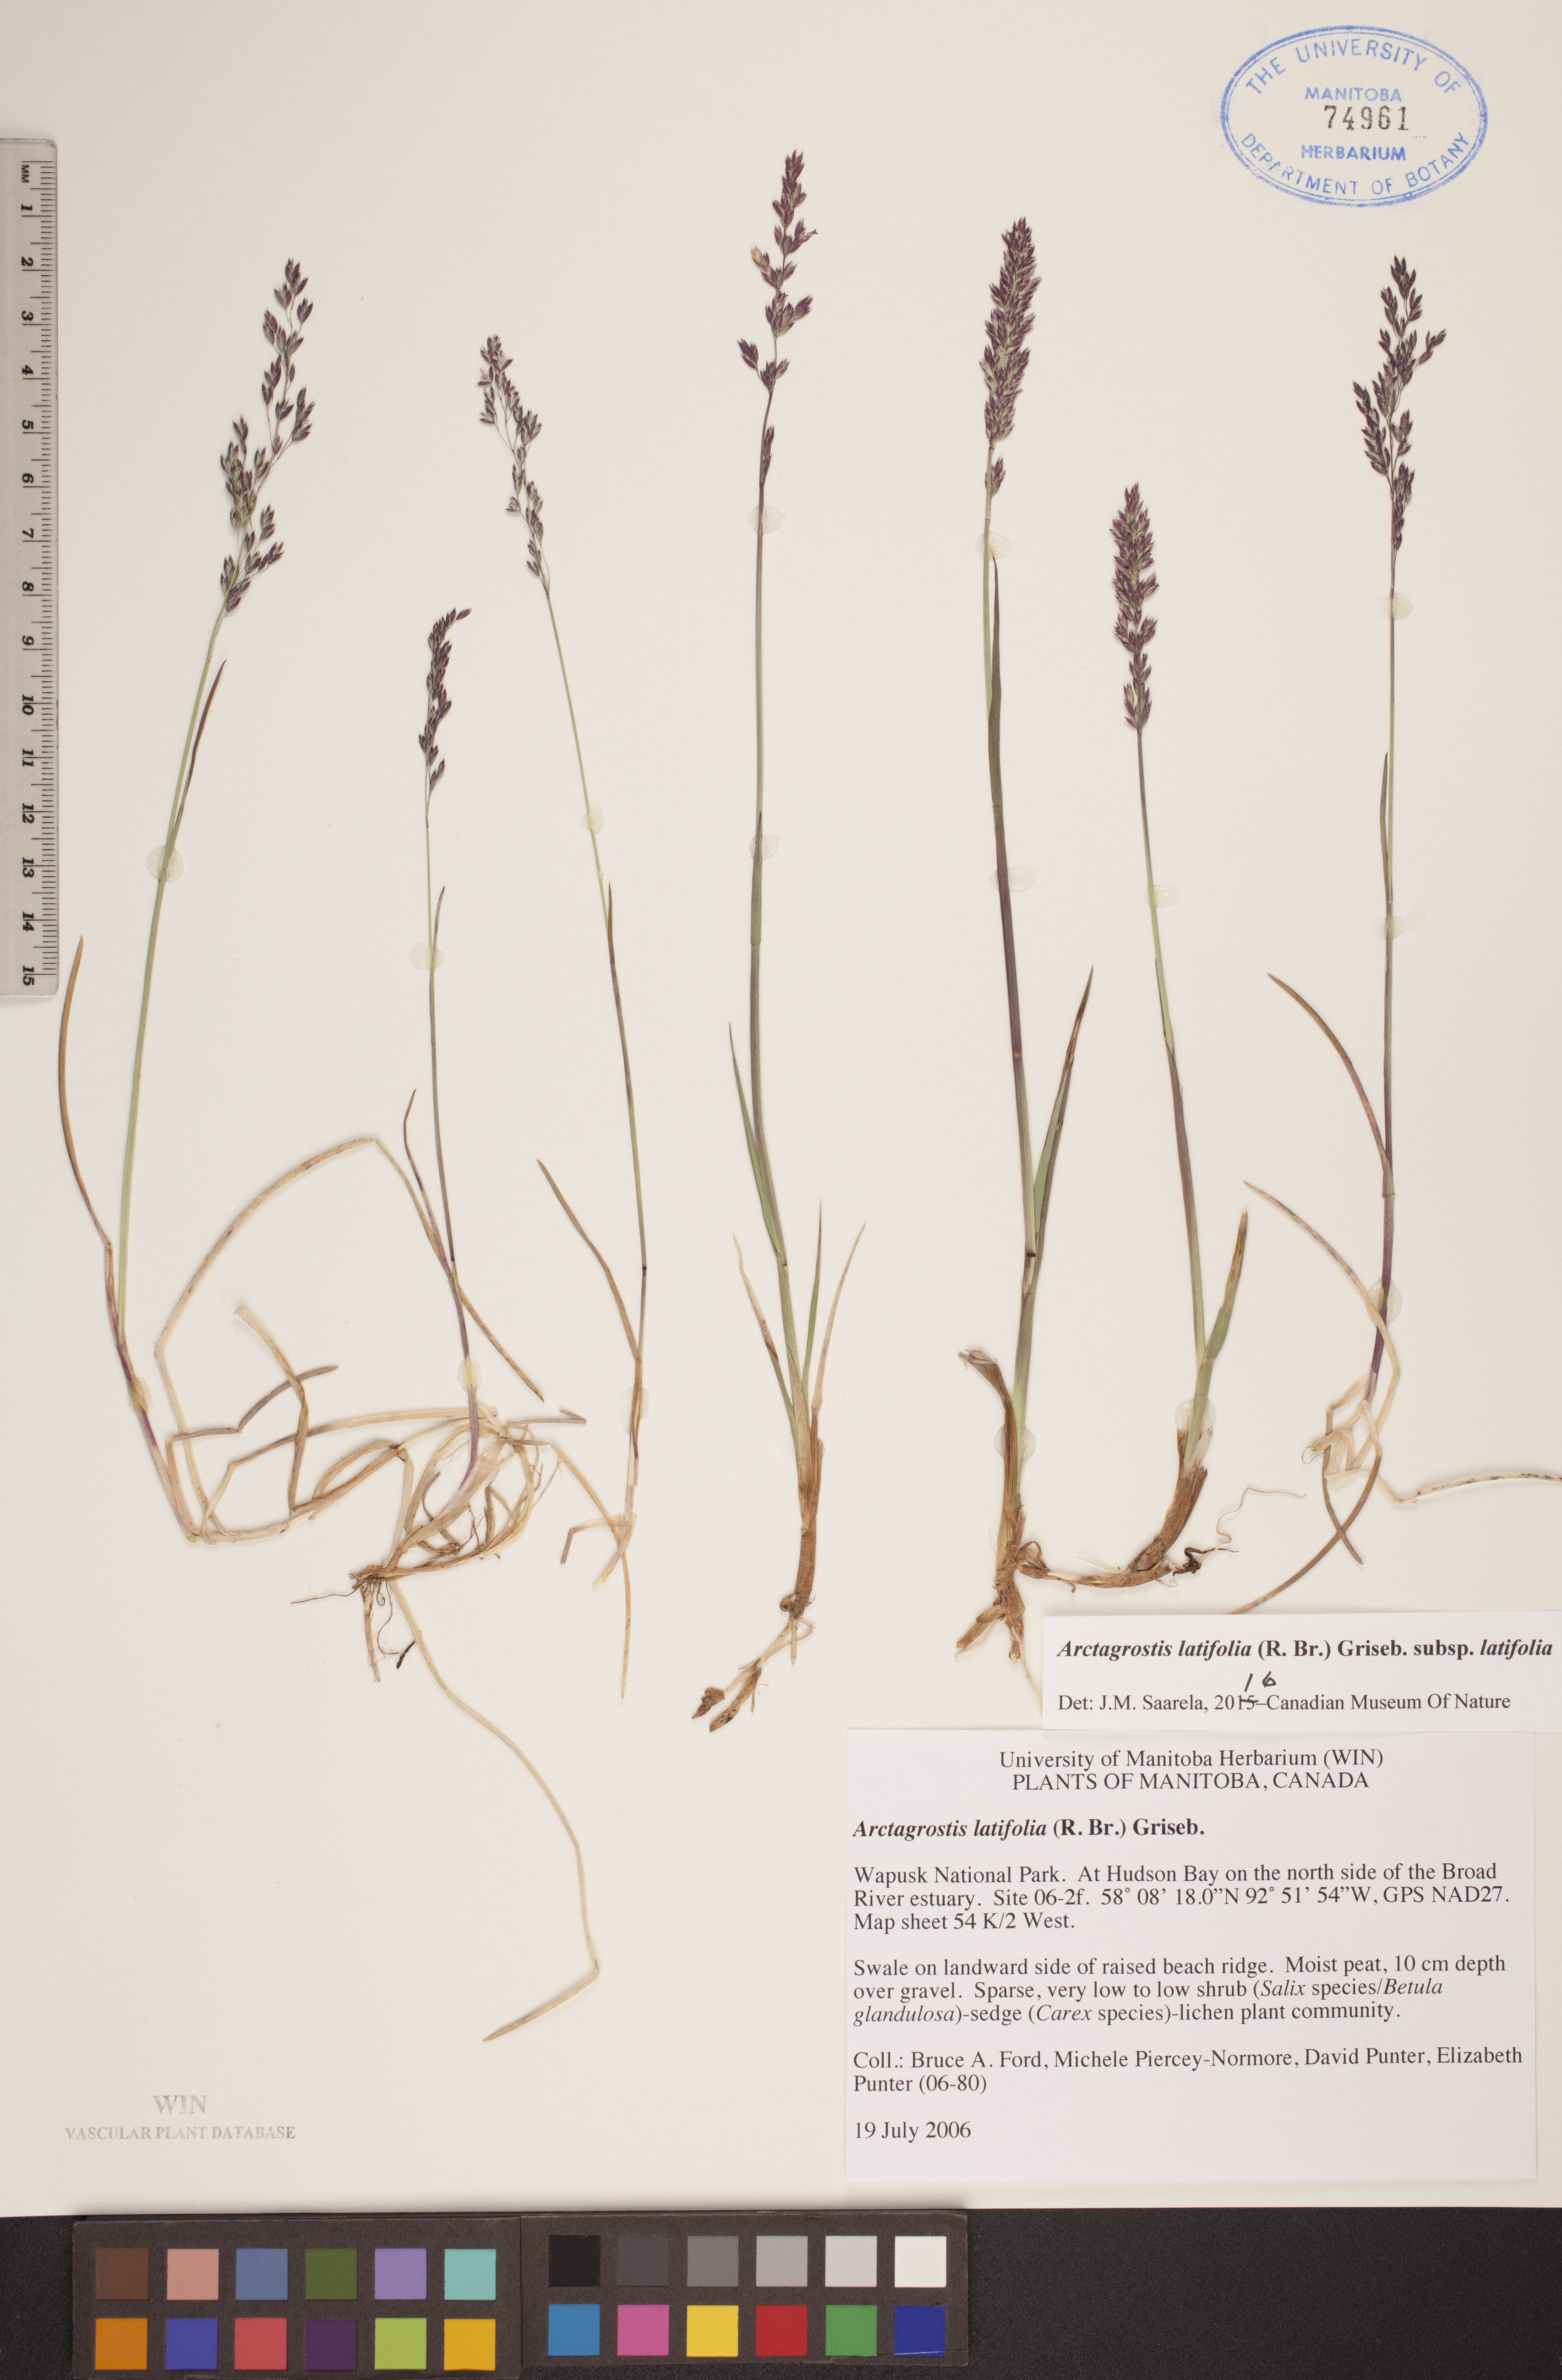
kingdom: Plantae
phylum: Tracheophyta
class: Liliopsida
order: Poales
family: Poaceae
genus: Arctagrostis
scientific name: Arctagrostis latifolia
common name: Arctic grass
